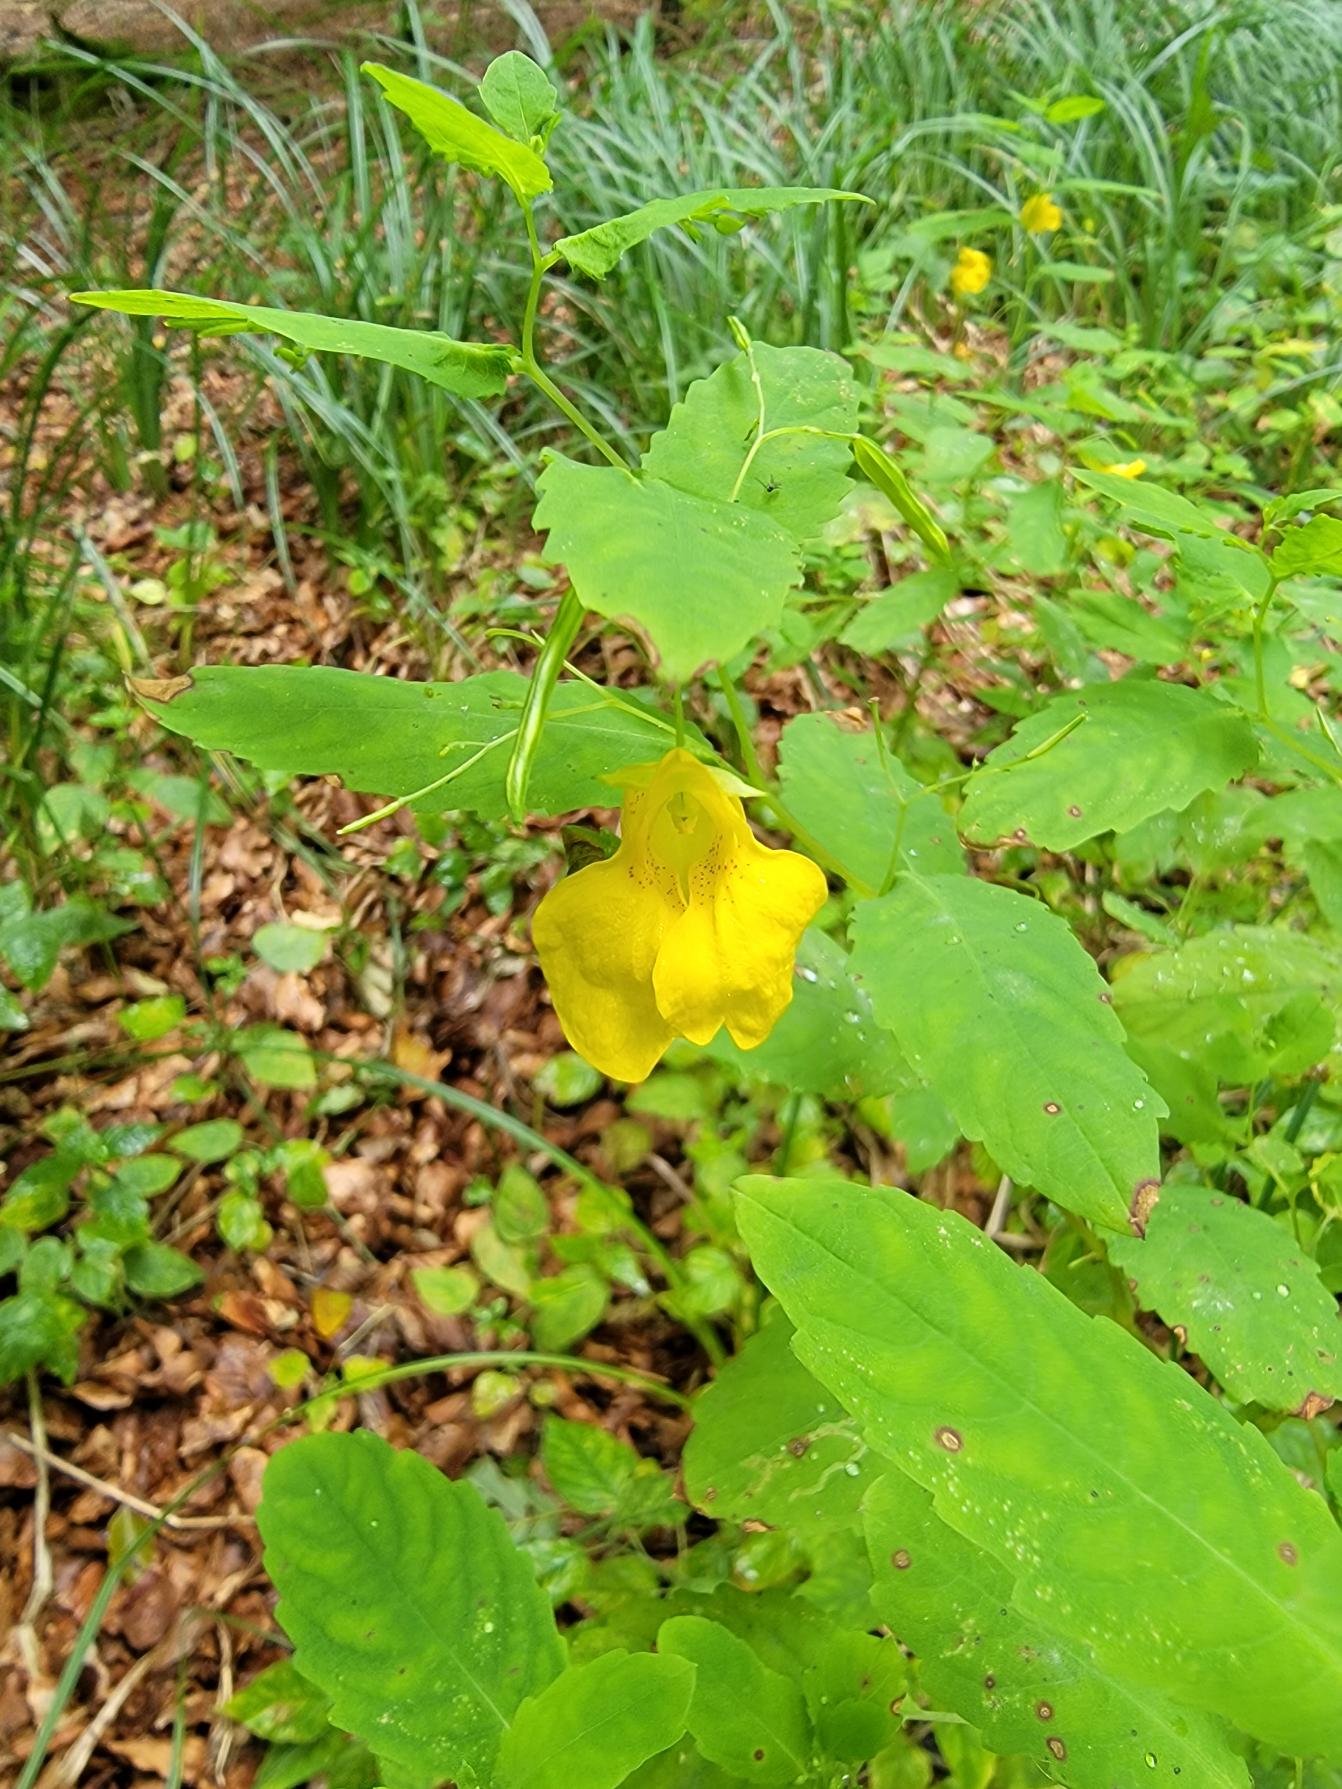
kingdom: Plantae
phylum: Tracheophyta
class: Magnoliopsida
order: Ericales
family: Balsaminaceae
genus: Impatiens
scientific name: Impatiens noli-tangere
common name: Spring-balsamin
